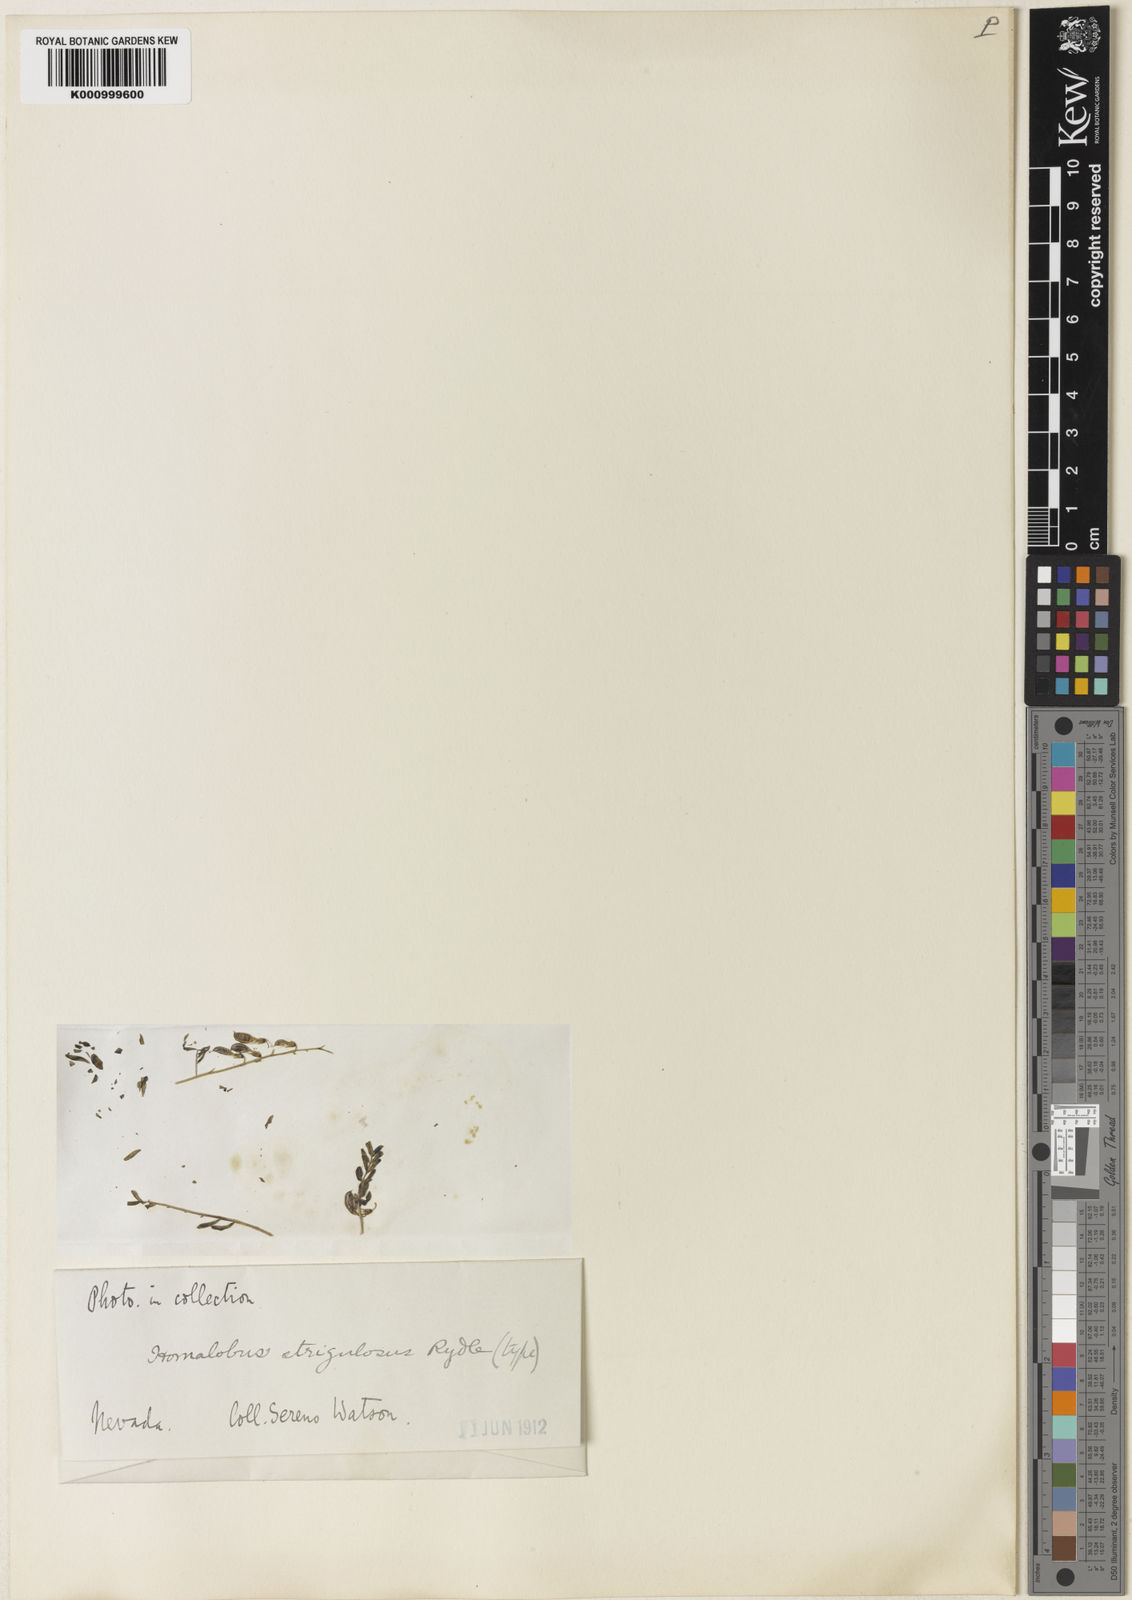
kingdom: Plantae
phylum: Tracheophyta
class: Magnoliopsida
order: Fabales
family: Fabaceae
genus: Astragalus
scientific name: Astragalus strigulosus
